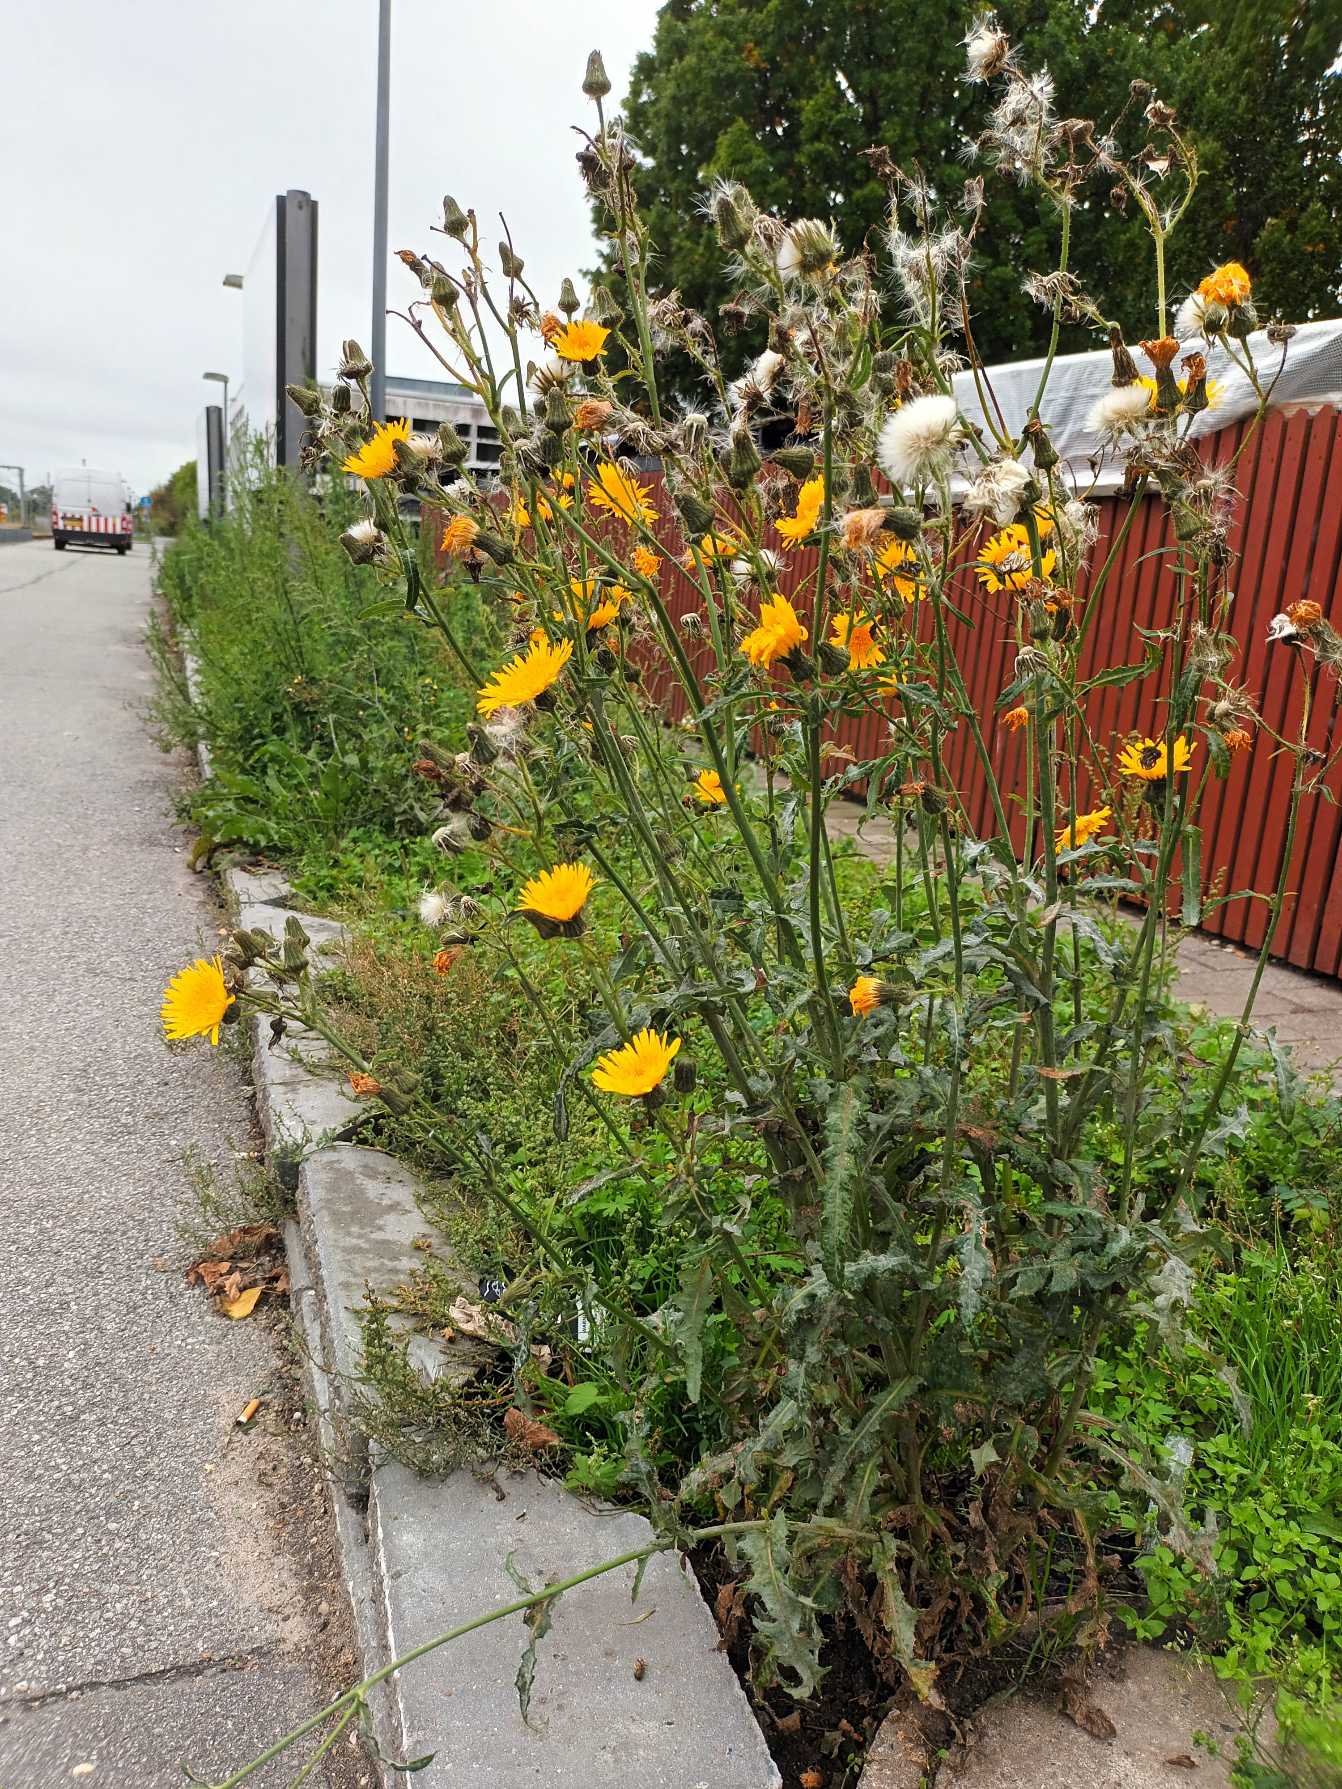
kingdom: Plantae
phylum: Tracheophyta
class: Magnoliopsida
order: Asterales
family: Asteraceae
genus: Sonchus
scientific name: Sonchus arvensis
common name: Ager-svinemælk
